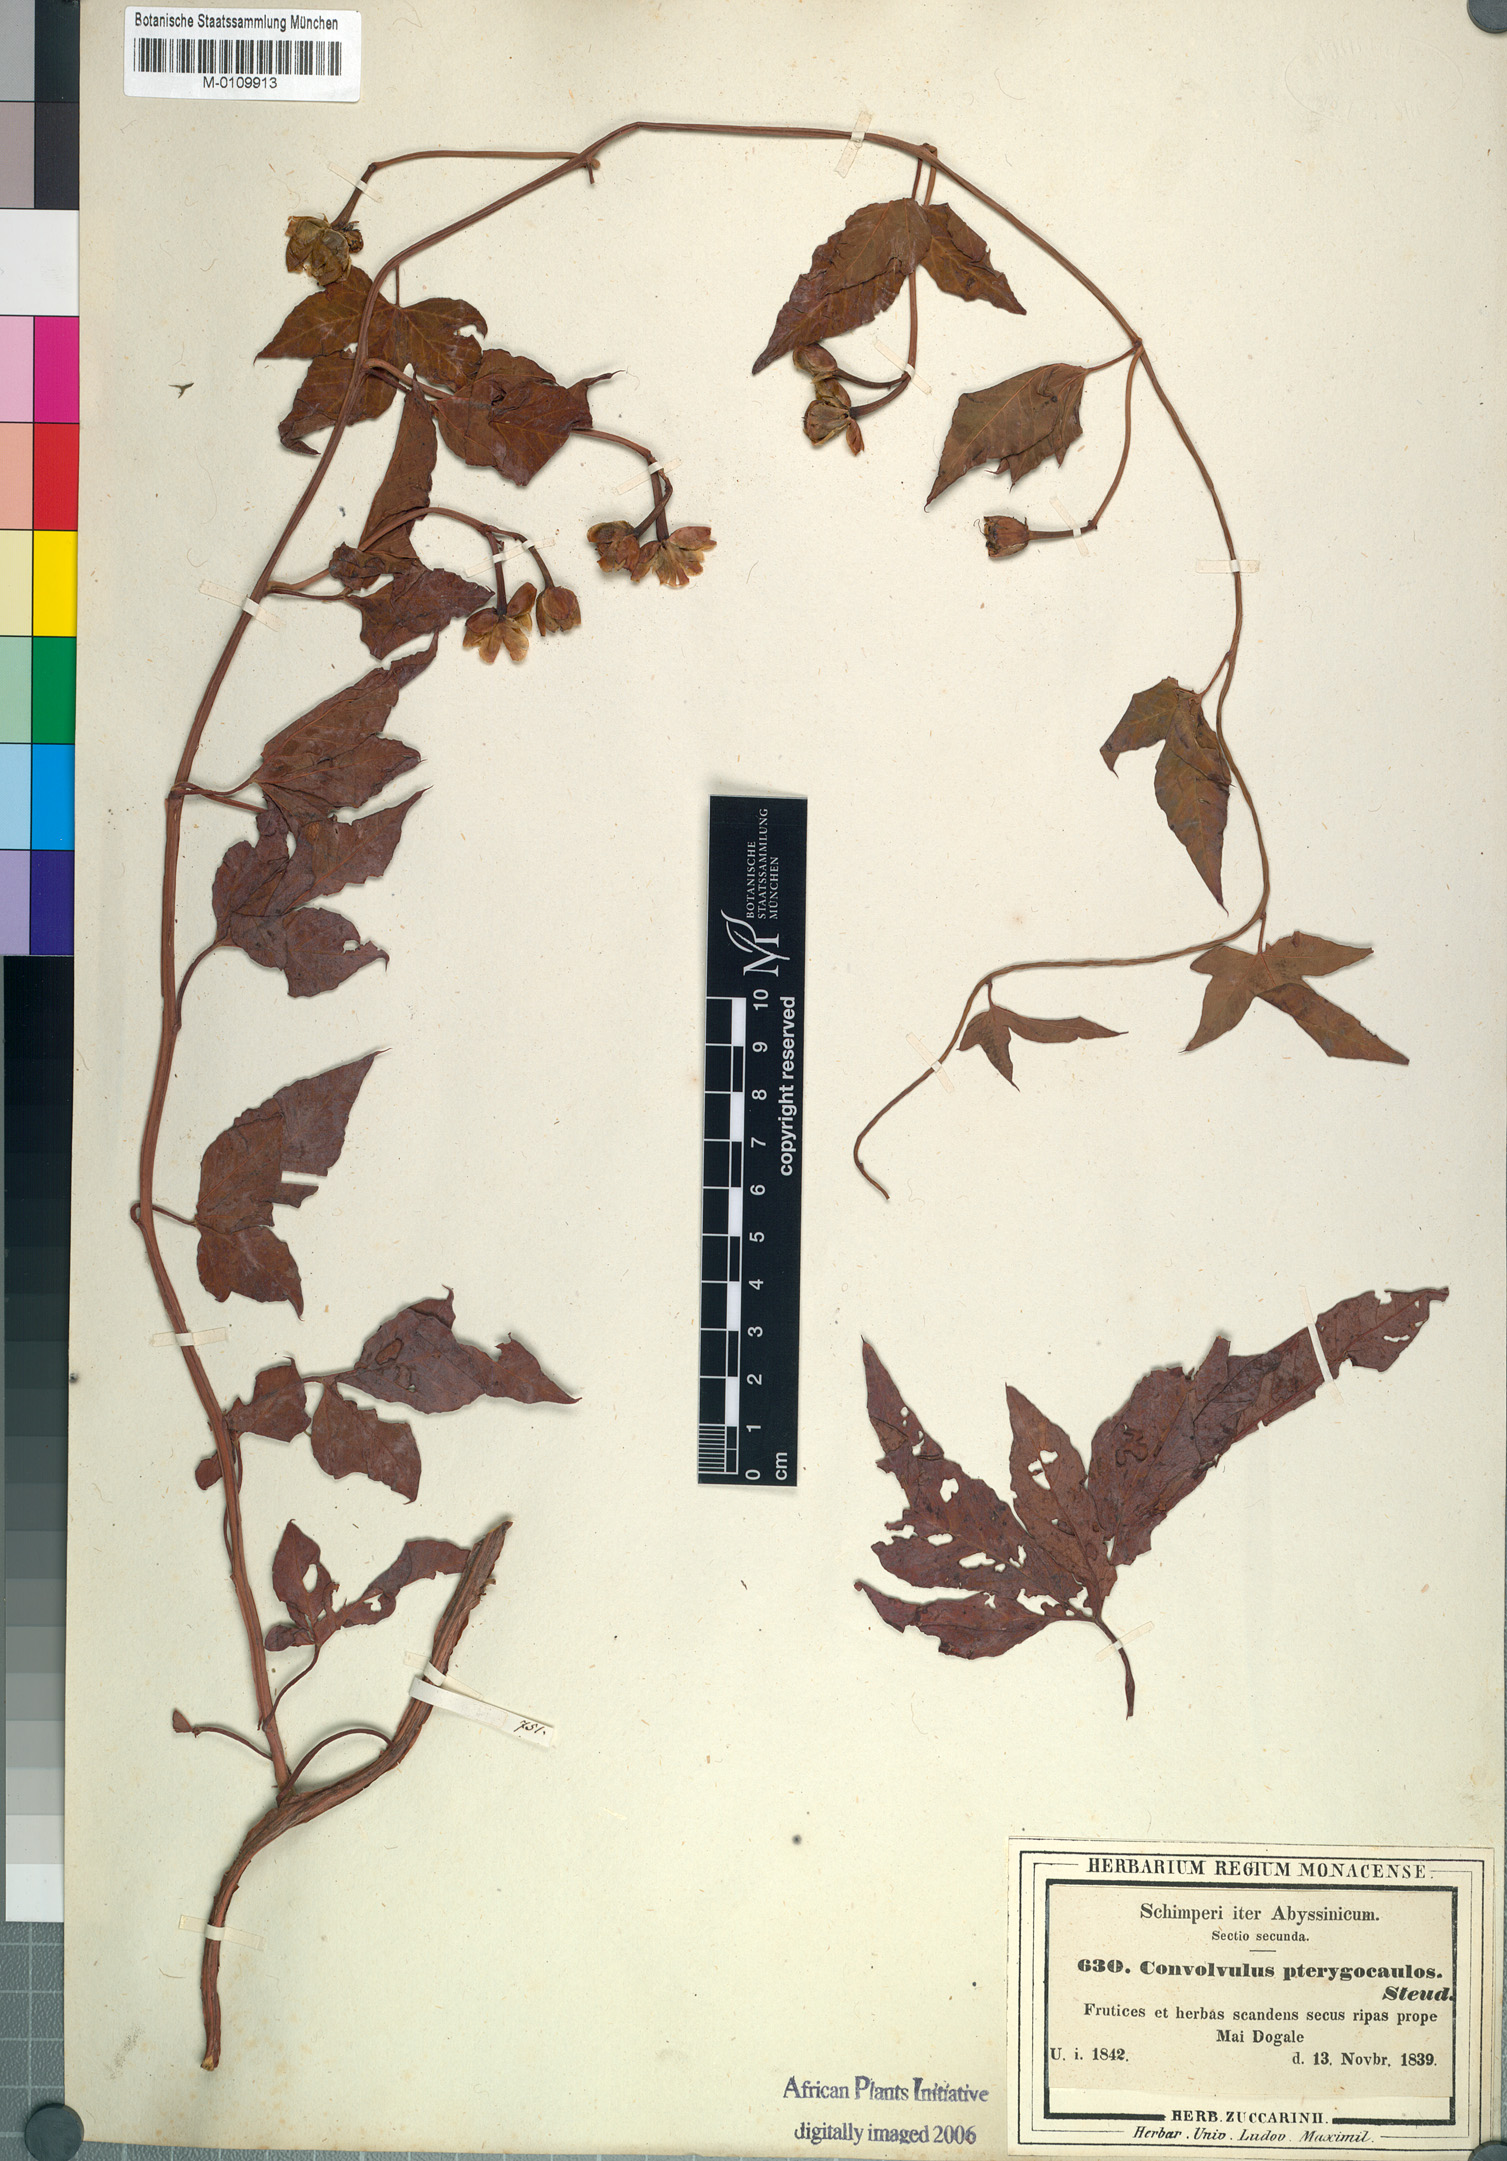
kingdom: Plantae
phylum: Tracheophyta
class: Magnoliopsida
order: Solanales
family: Convolvulaceae
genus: Merremia
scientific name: Merremia pterygocaulos
